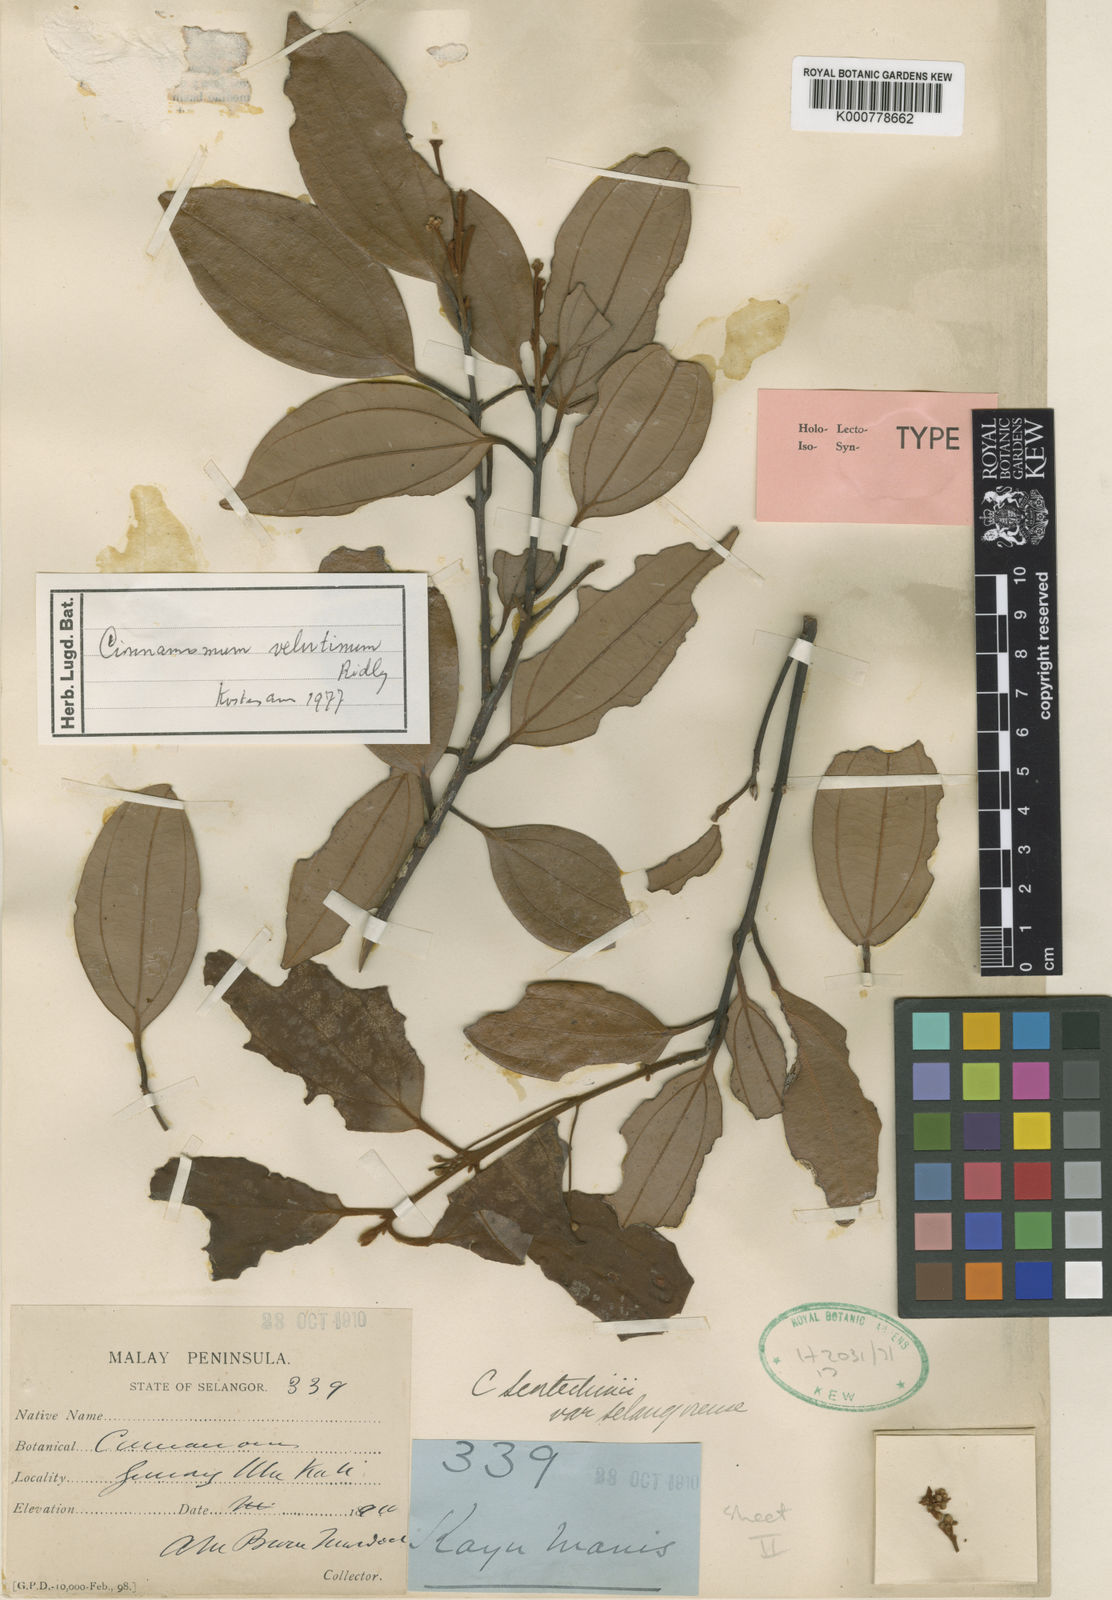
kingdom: Plantae
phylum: Tracheophyta
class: Magnoliopsida
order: Laurales
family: Lauraceae
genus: Cinnamomum
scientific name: Cinnamomum scortechinii
